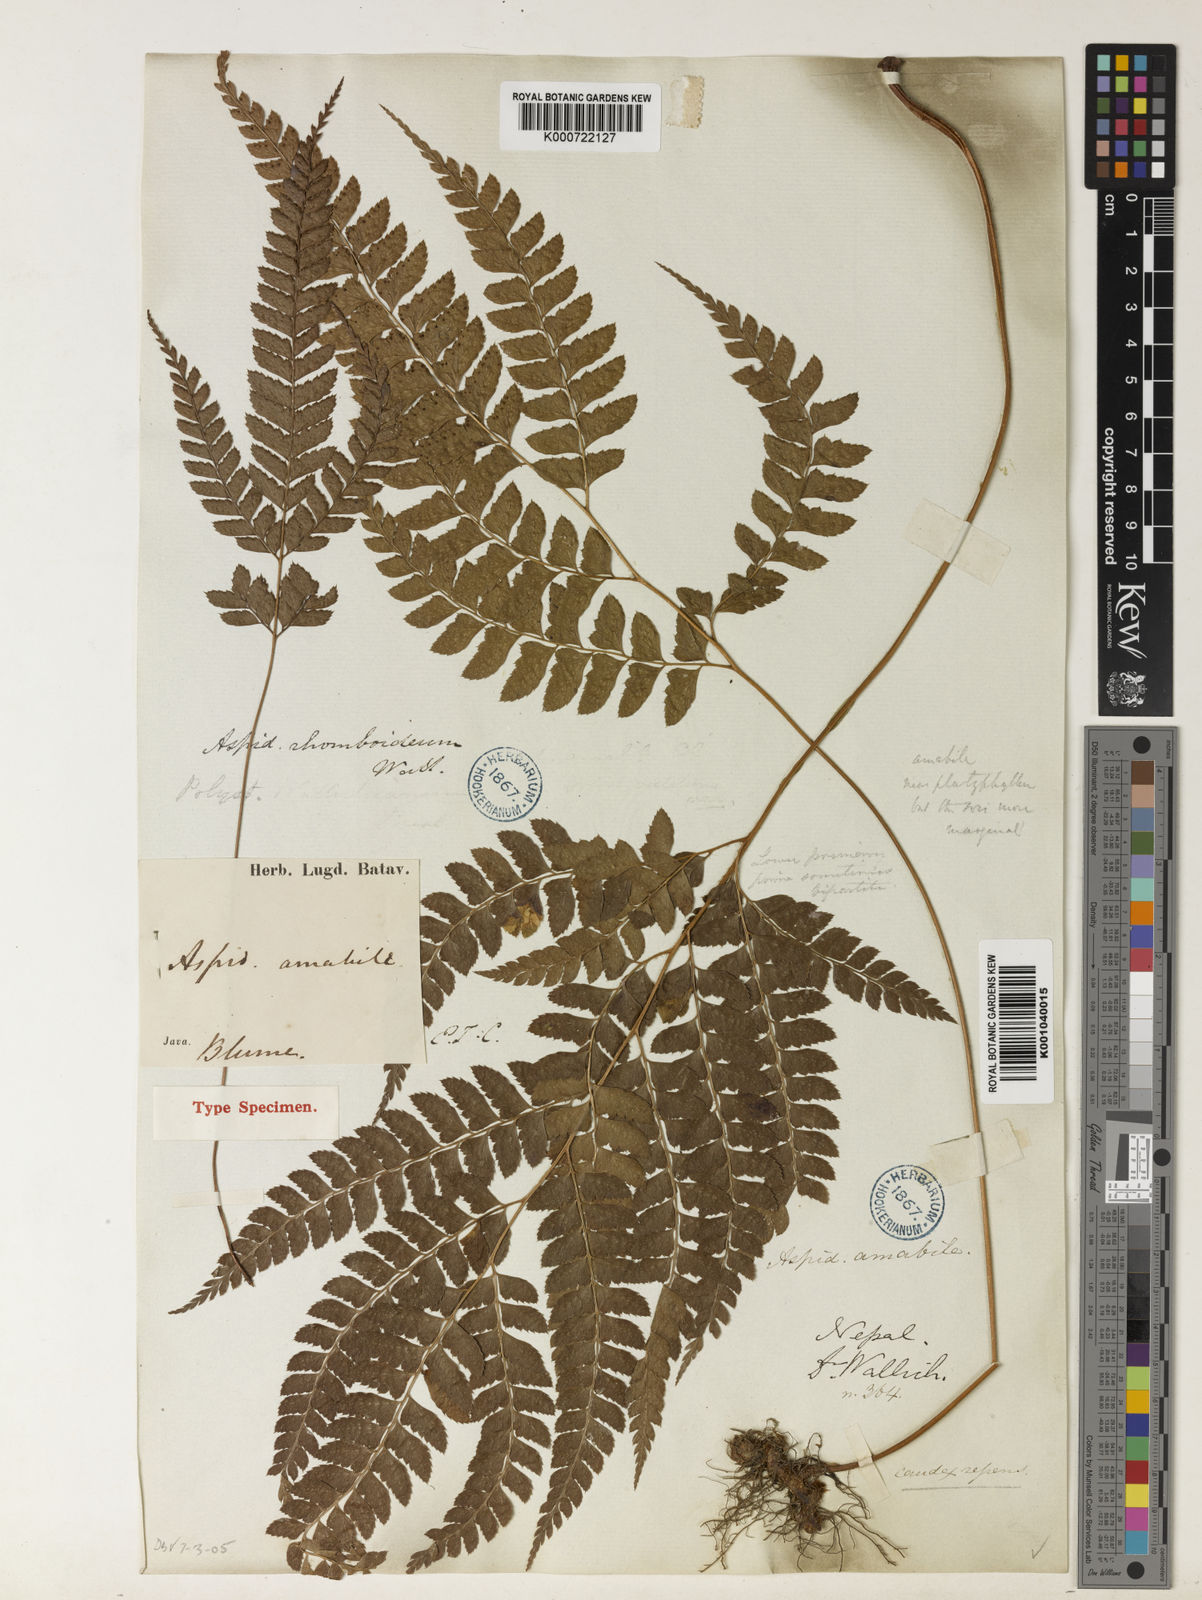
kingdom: Plantae
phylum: Tracheophyta
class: Polypodiopsida
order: Polypodiales
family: Dryopteridaceae
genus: Arachniodes
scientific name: Arachniodes amabilis
